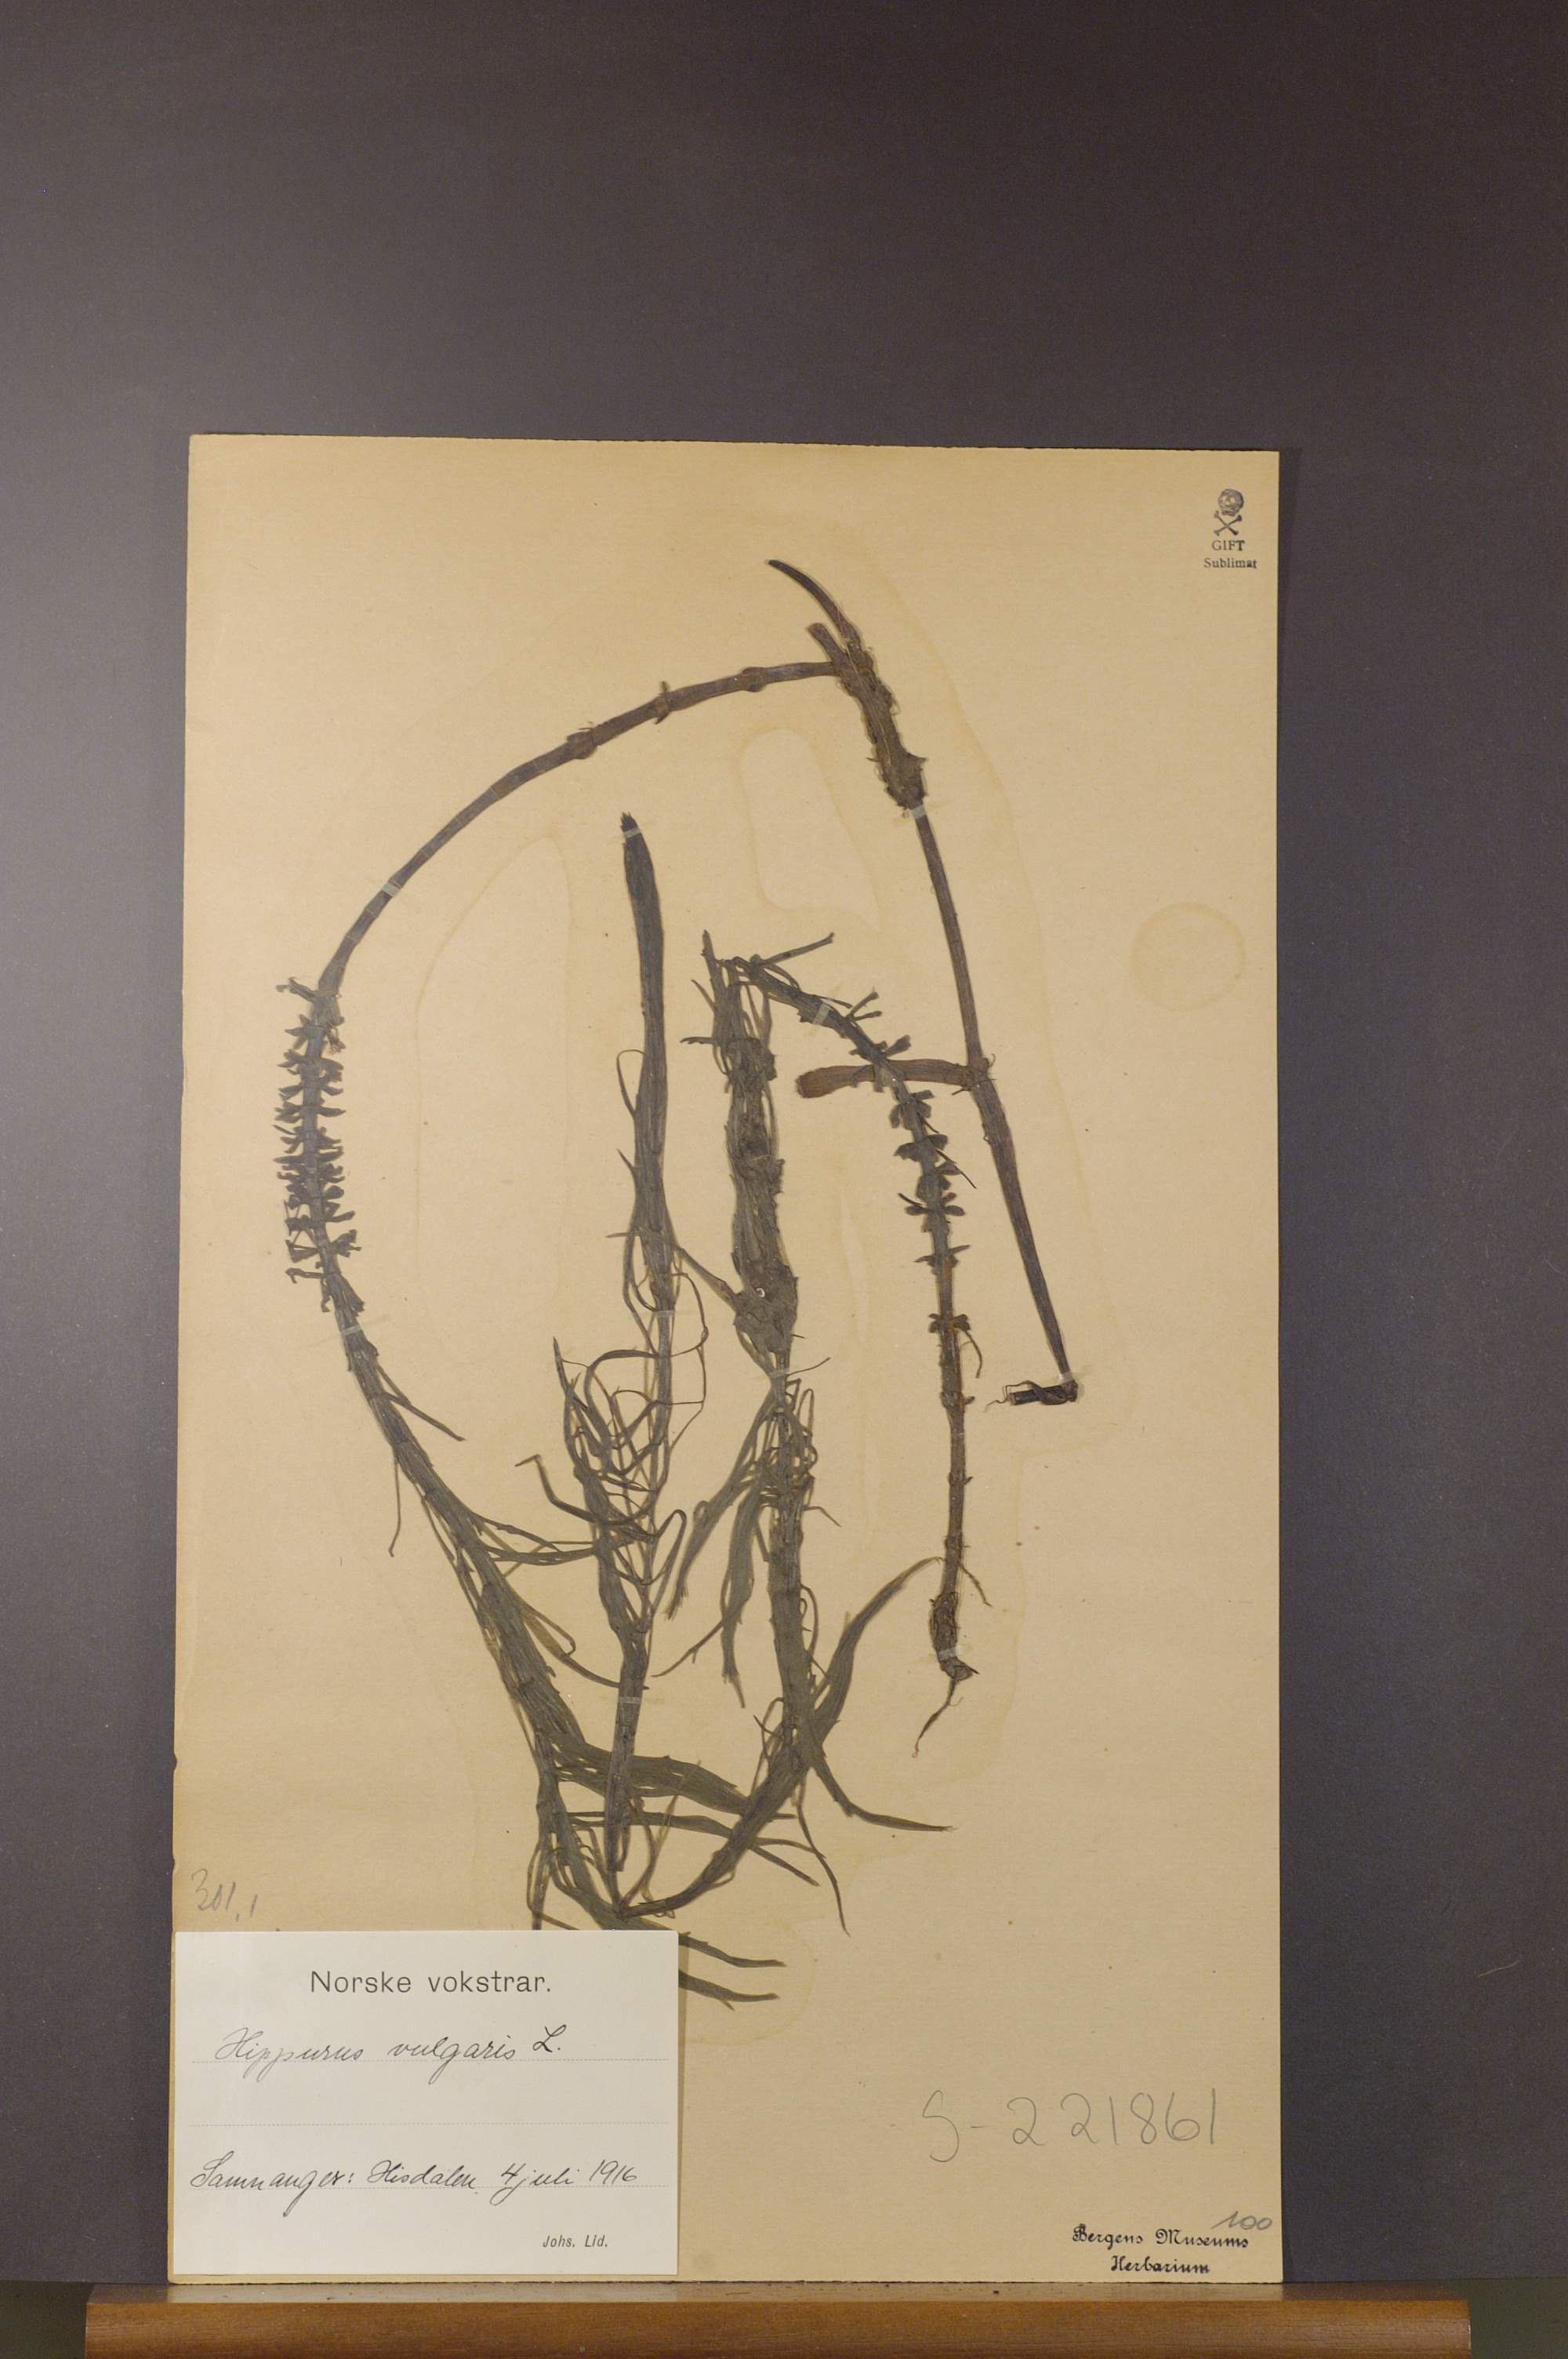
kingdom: Plantae
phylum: Tracheophyta
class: Magnoliopsida
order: Lamiales
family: Plantaginaceae
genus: Hippuris
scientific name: Hippuris vulgaris
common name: Mare's-tail
